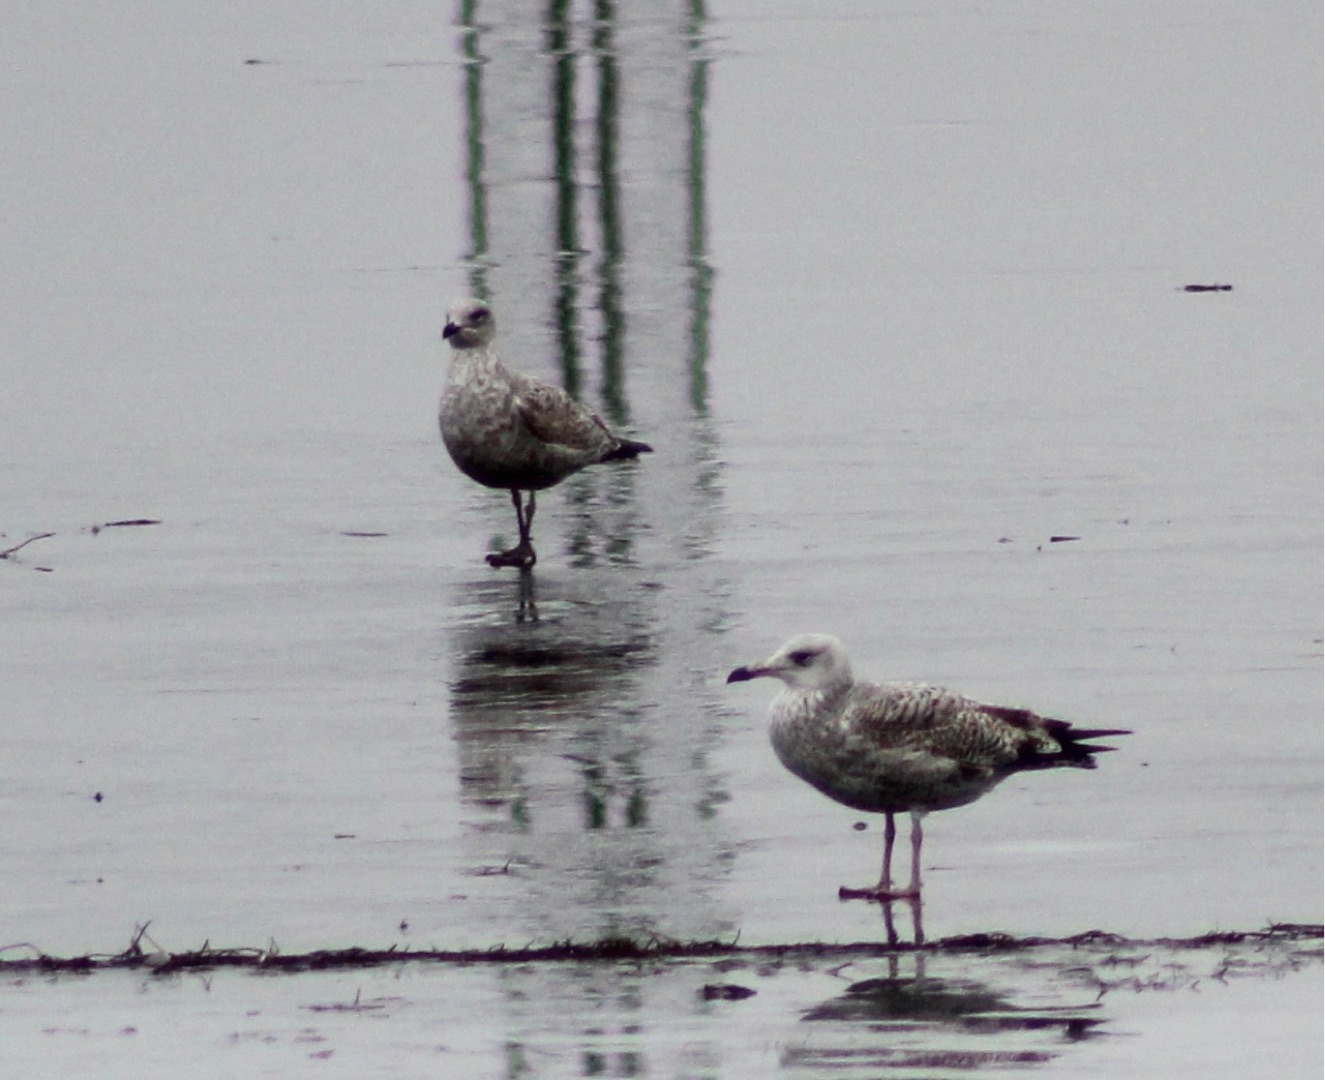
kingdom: Animalia
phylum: Chordata
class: Aves
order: Charadriiformes
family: Laridae
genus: Larus
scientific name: Larus argentatus
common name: Sølvmåge
